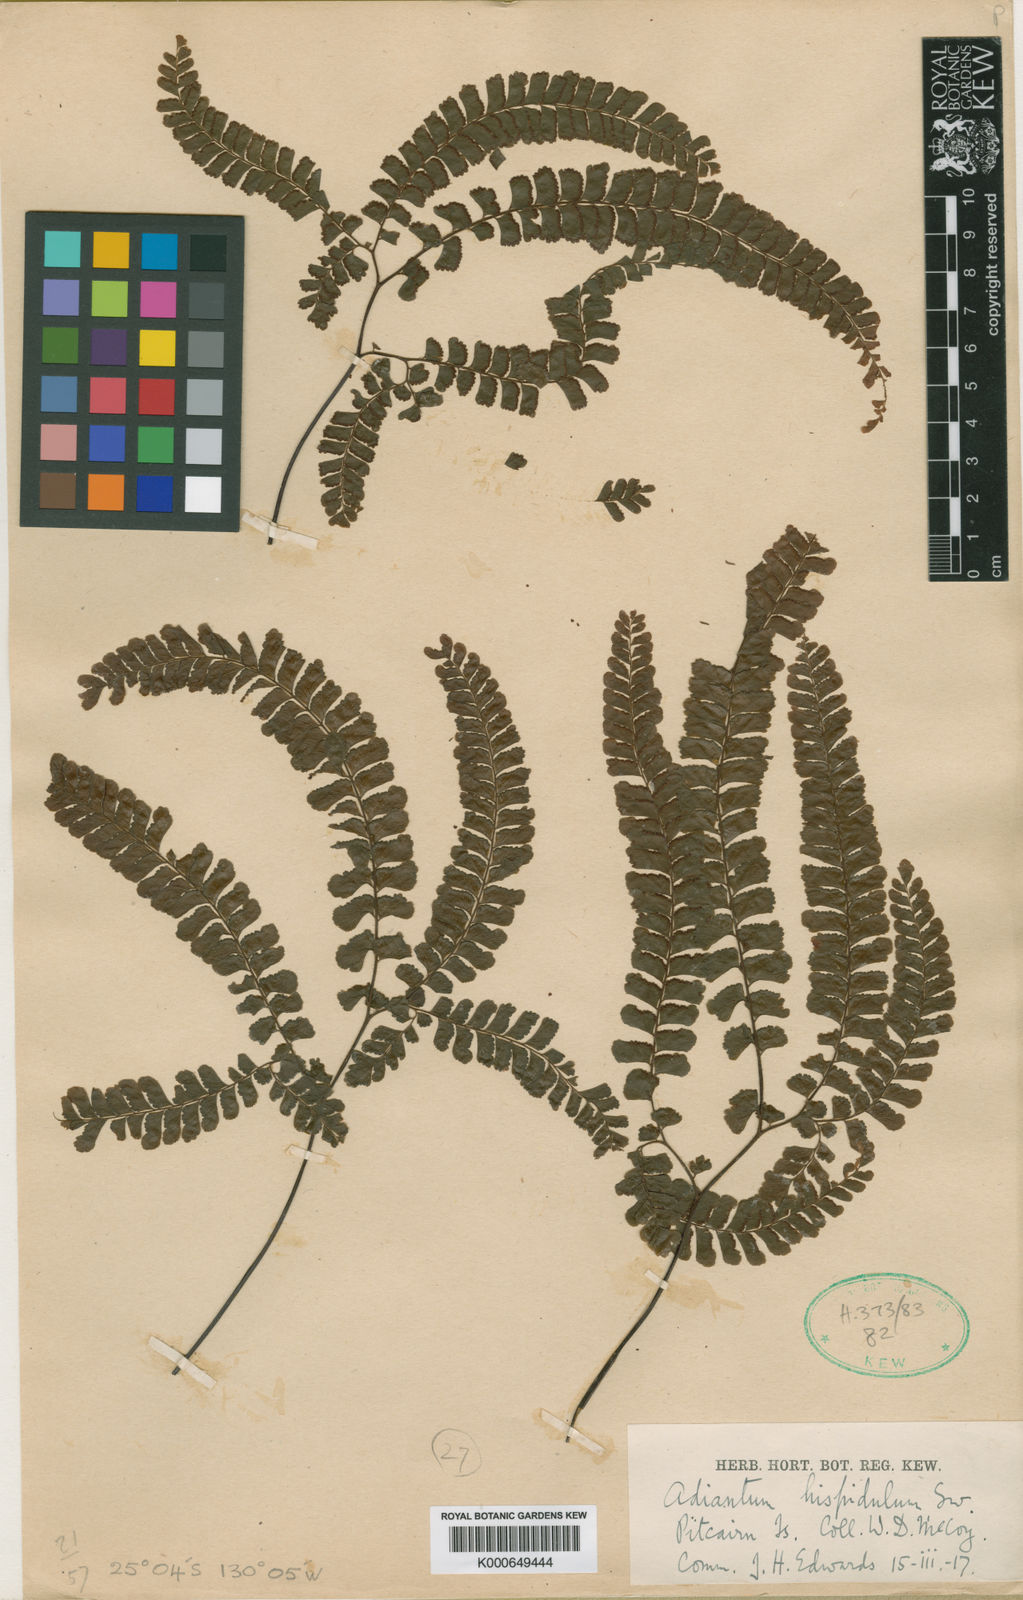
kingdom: Plantae
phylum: Tracheophyta
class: Polypodiopsida
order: Polypodiales
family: Pteridaceae
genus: Adiantum
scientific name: Adiantum
